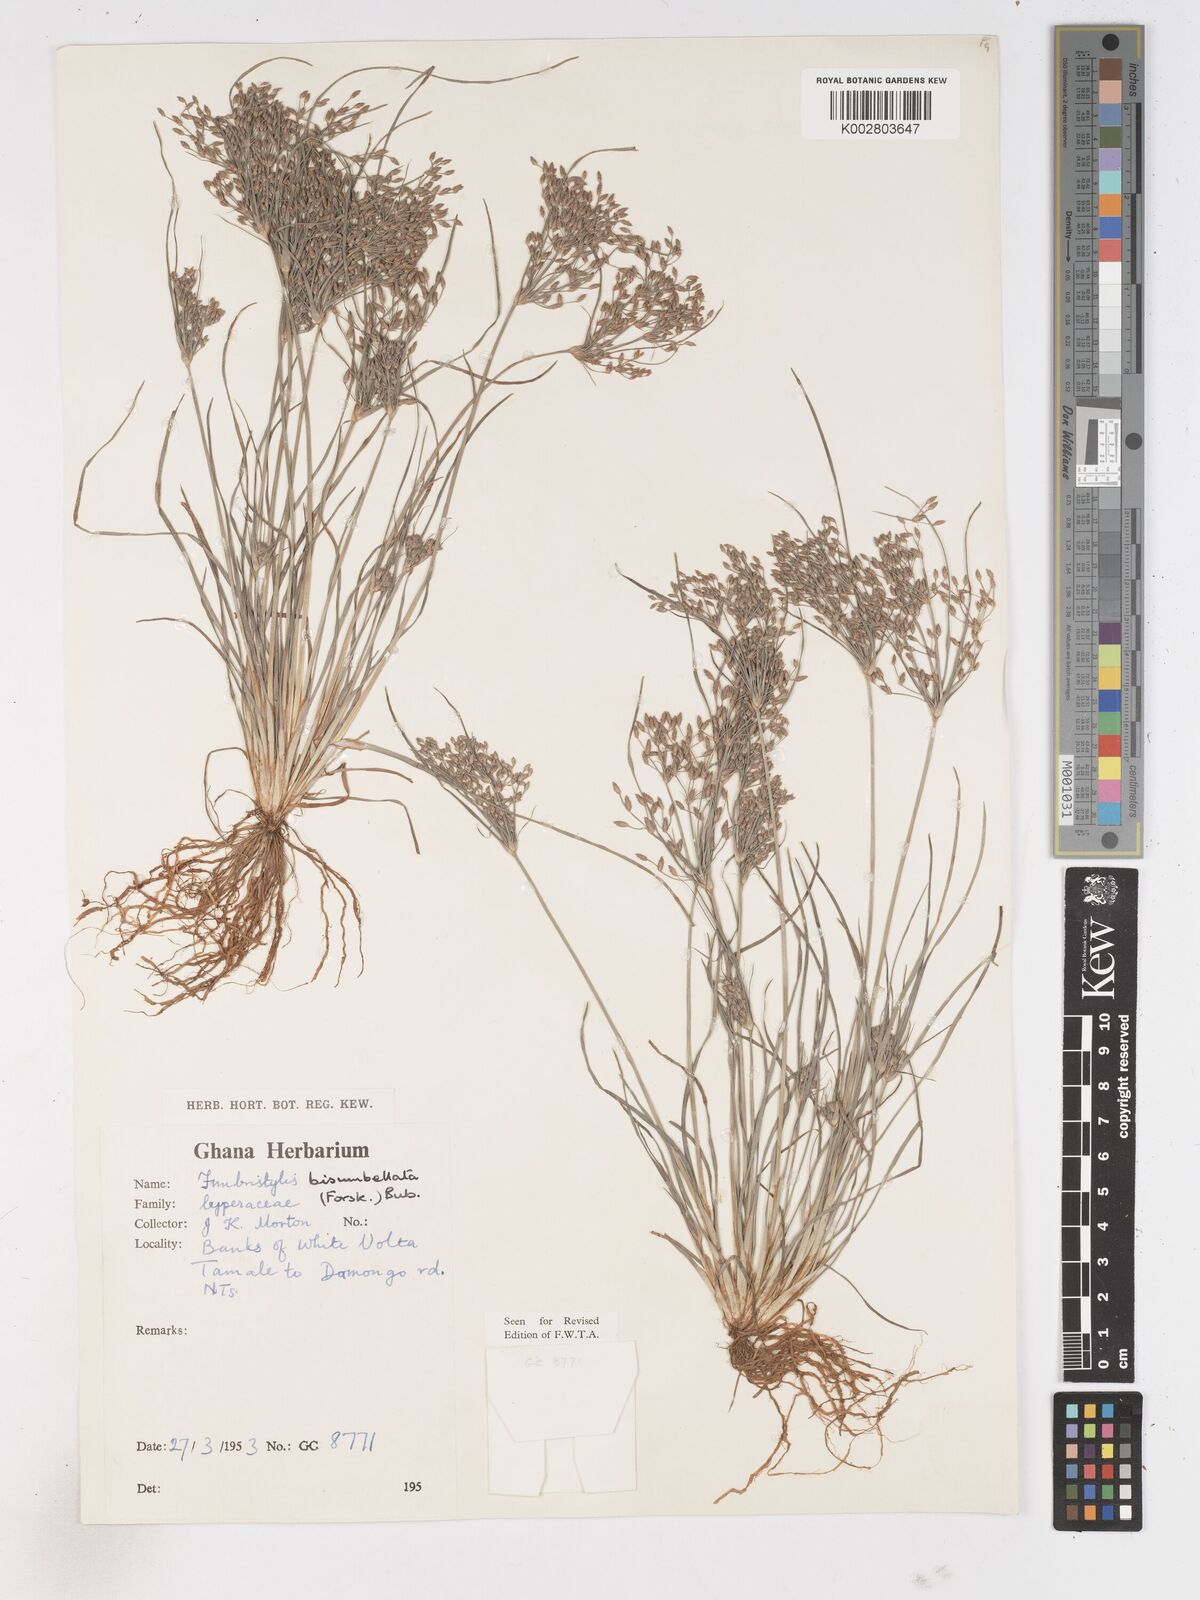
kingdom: Plantae
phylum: Tracheophyta
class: Liliopsida
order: Poales
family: Cyperaceae
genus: Fimbristylis
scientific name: Fimbristylis bisumbellata
